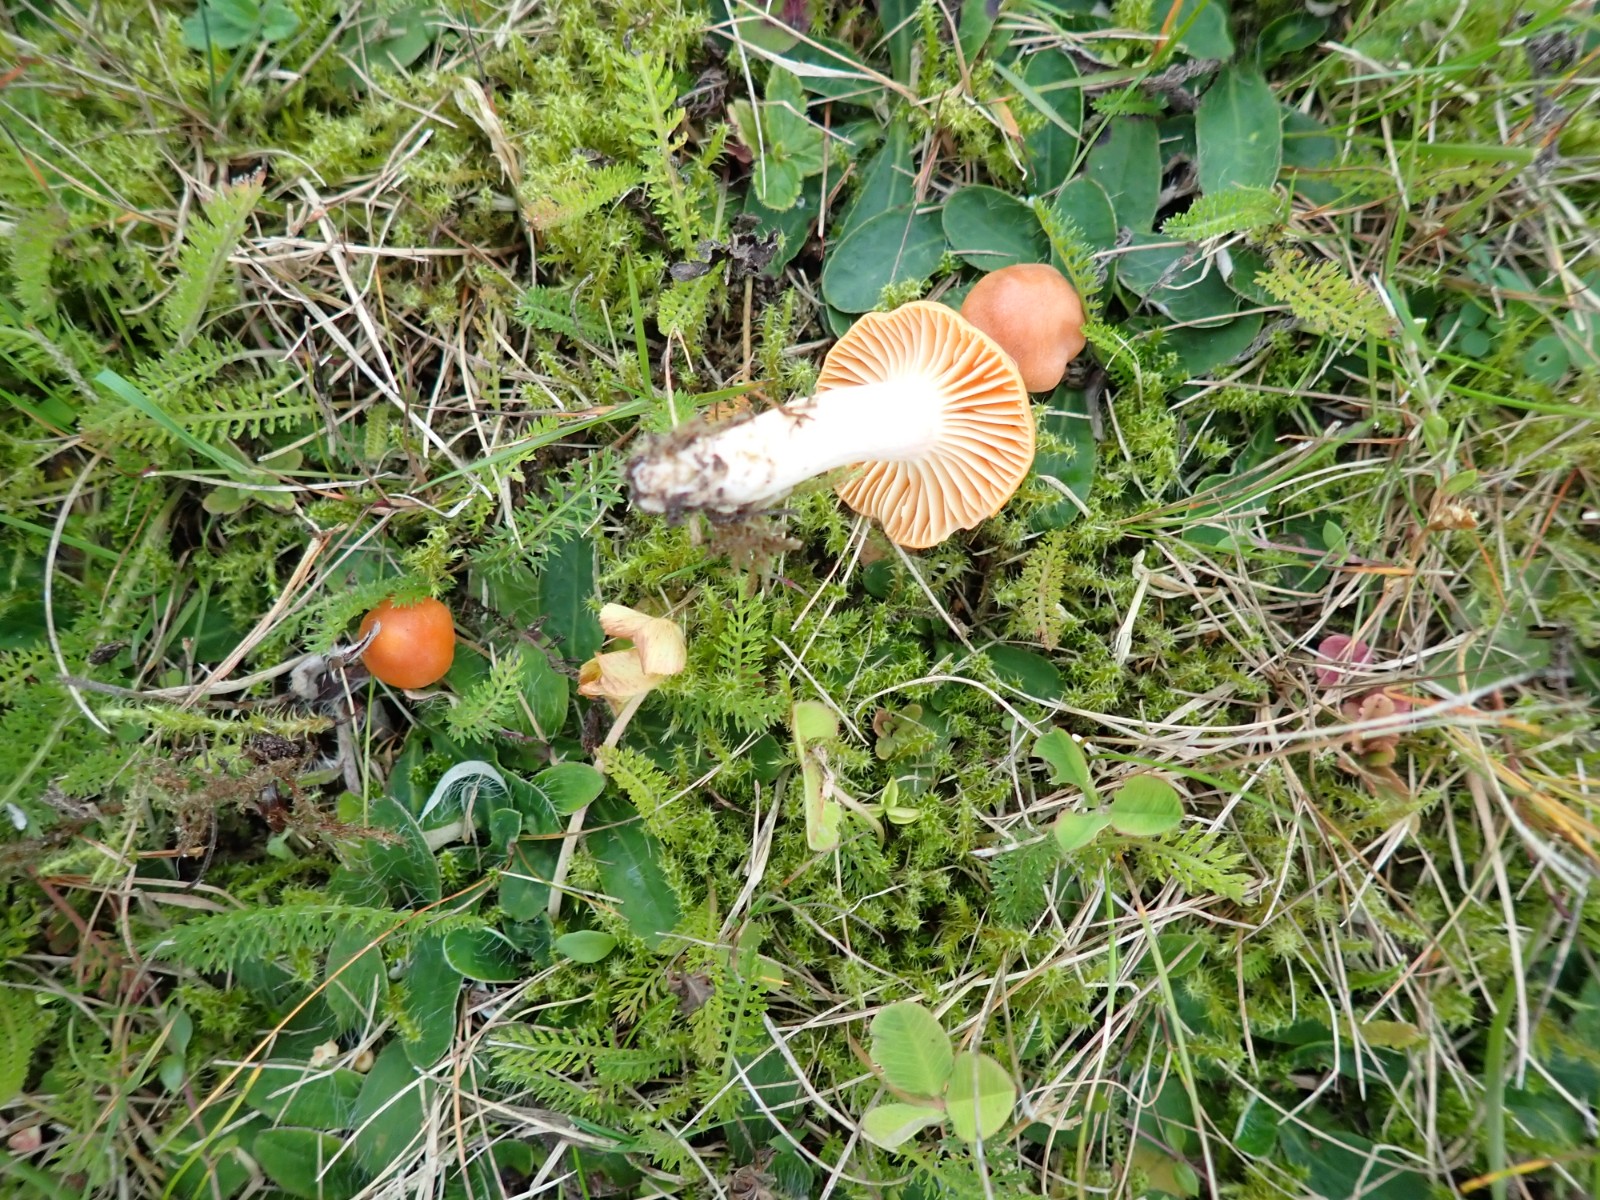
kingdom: Fungi
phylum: Basidiomycota
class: Agaricomycetes
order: Agaricales
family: Hygrophoraceae
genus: Cuphophyllus
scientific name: Cuphophyllus pratensis
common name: eng-vokshat
